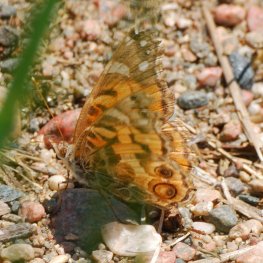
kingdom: Animalia
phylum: Arthropoda
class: Insecta
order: Lepidoptera
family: Nymphalidae
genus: Vanessa
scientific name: Vanessa virginiensis
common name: American Lady
